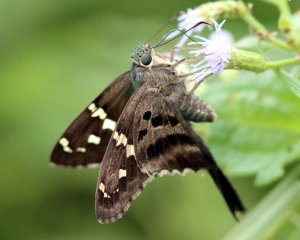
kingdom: Animalia
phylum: Arthropoda
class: Insecta
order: Lepidoptera
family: Hesperiidae
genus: Urbanus
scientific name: Urbanus proteus
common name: Long-tailed Skipper
